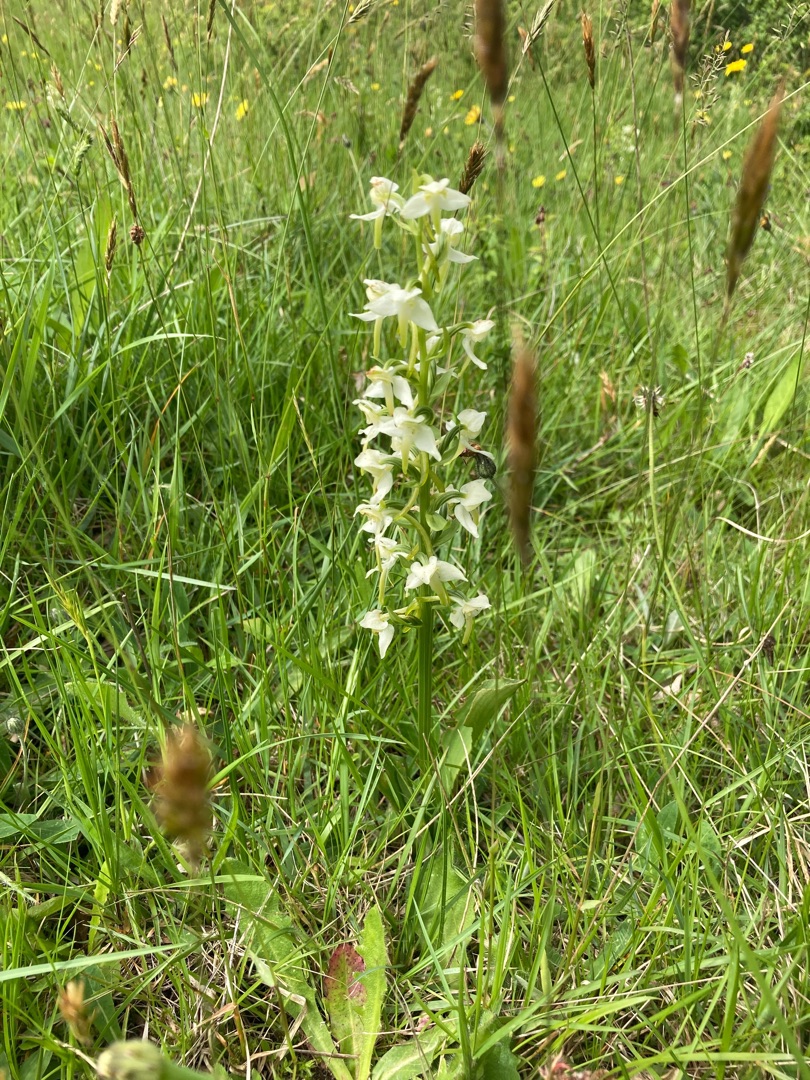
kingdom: Plantae
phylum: Tracheophyta
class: Liliopsida
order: Asparagales
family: Orchidaceae
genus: Platanthera
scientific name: Platanthera chlorantha
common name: Skov-gøgelilje
